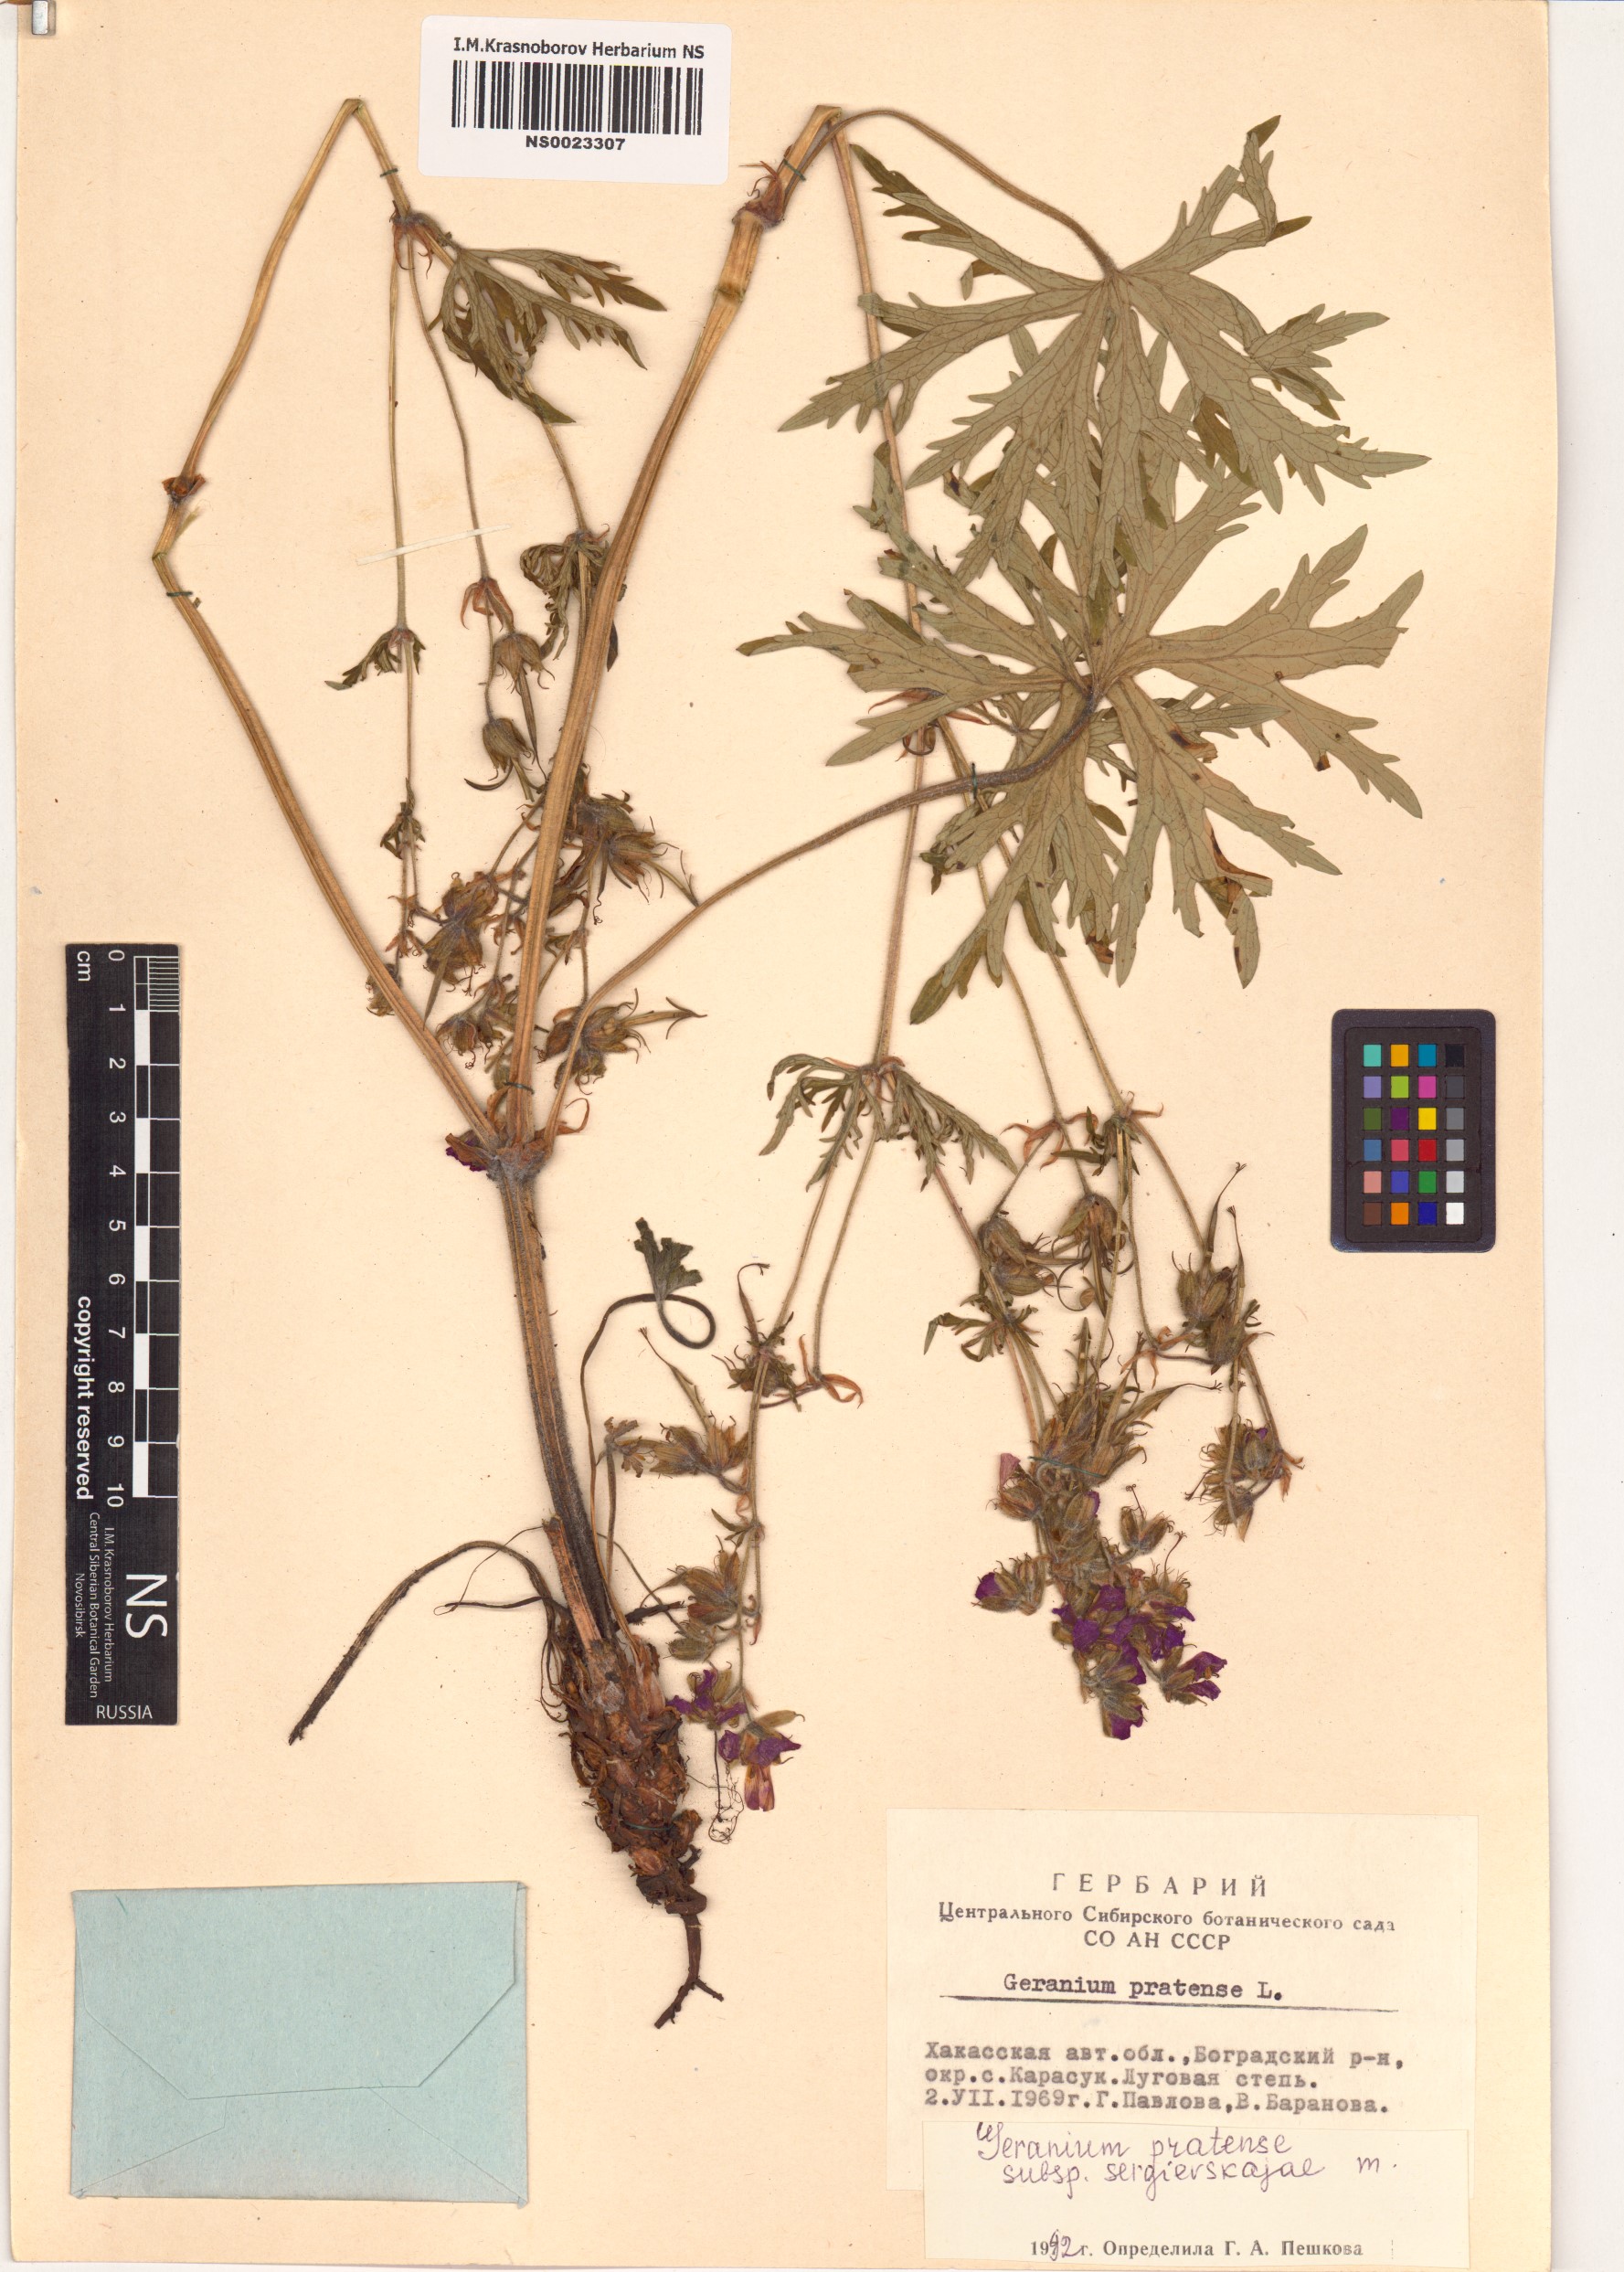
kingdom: Plantae
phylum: Tracheophyta
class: Magnoliopsida
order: Geraniales
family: Geraniaceae
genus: Geranium
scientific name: Geranium pratense
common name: Meadow crane's-bill
